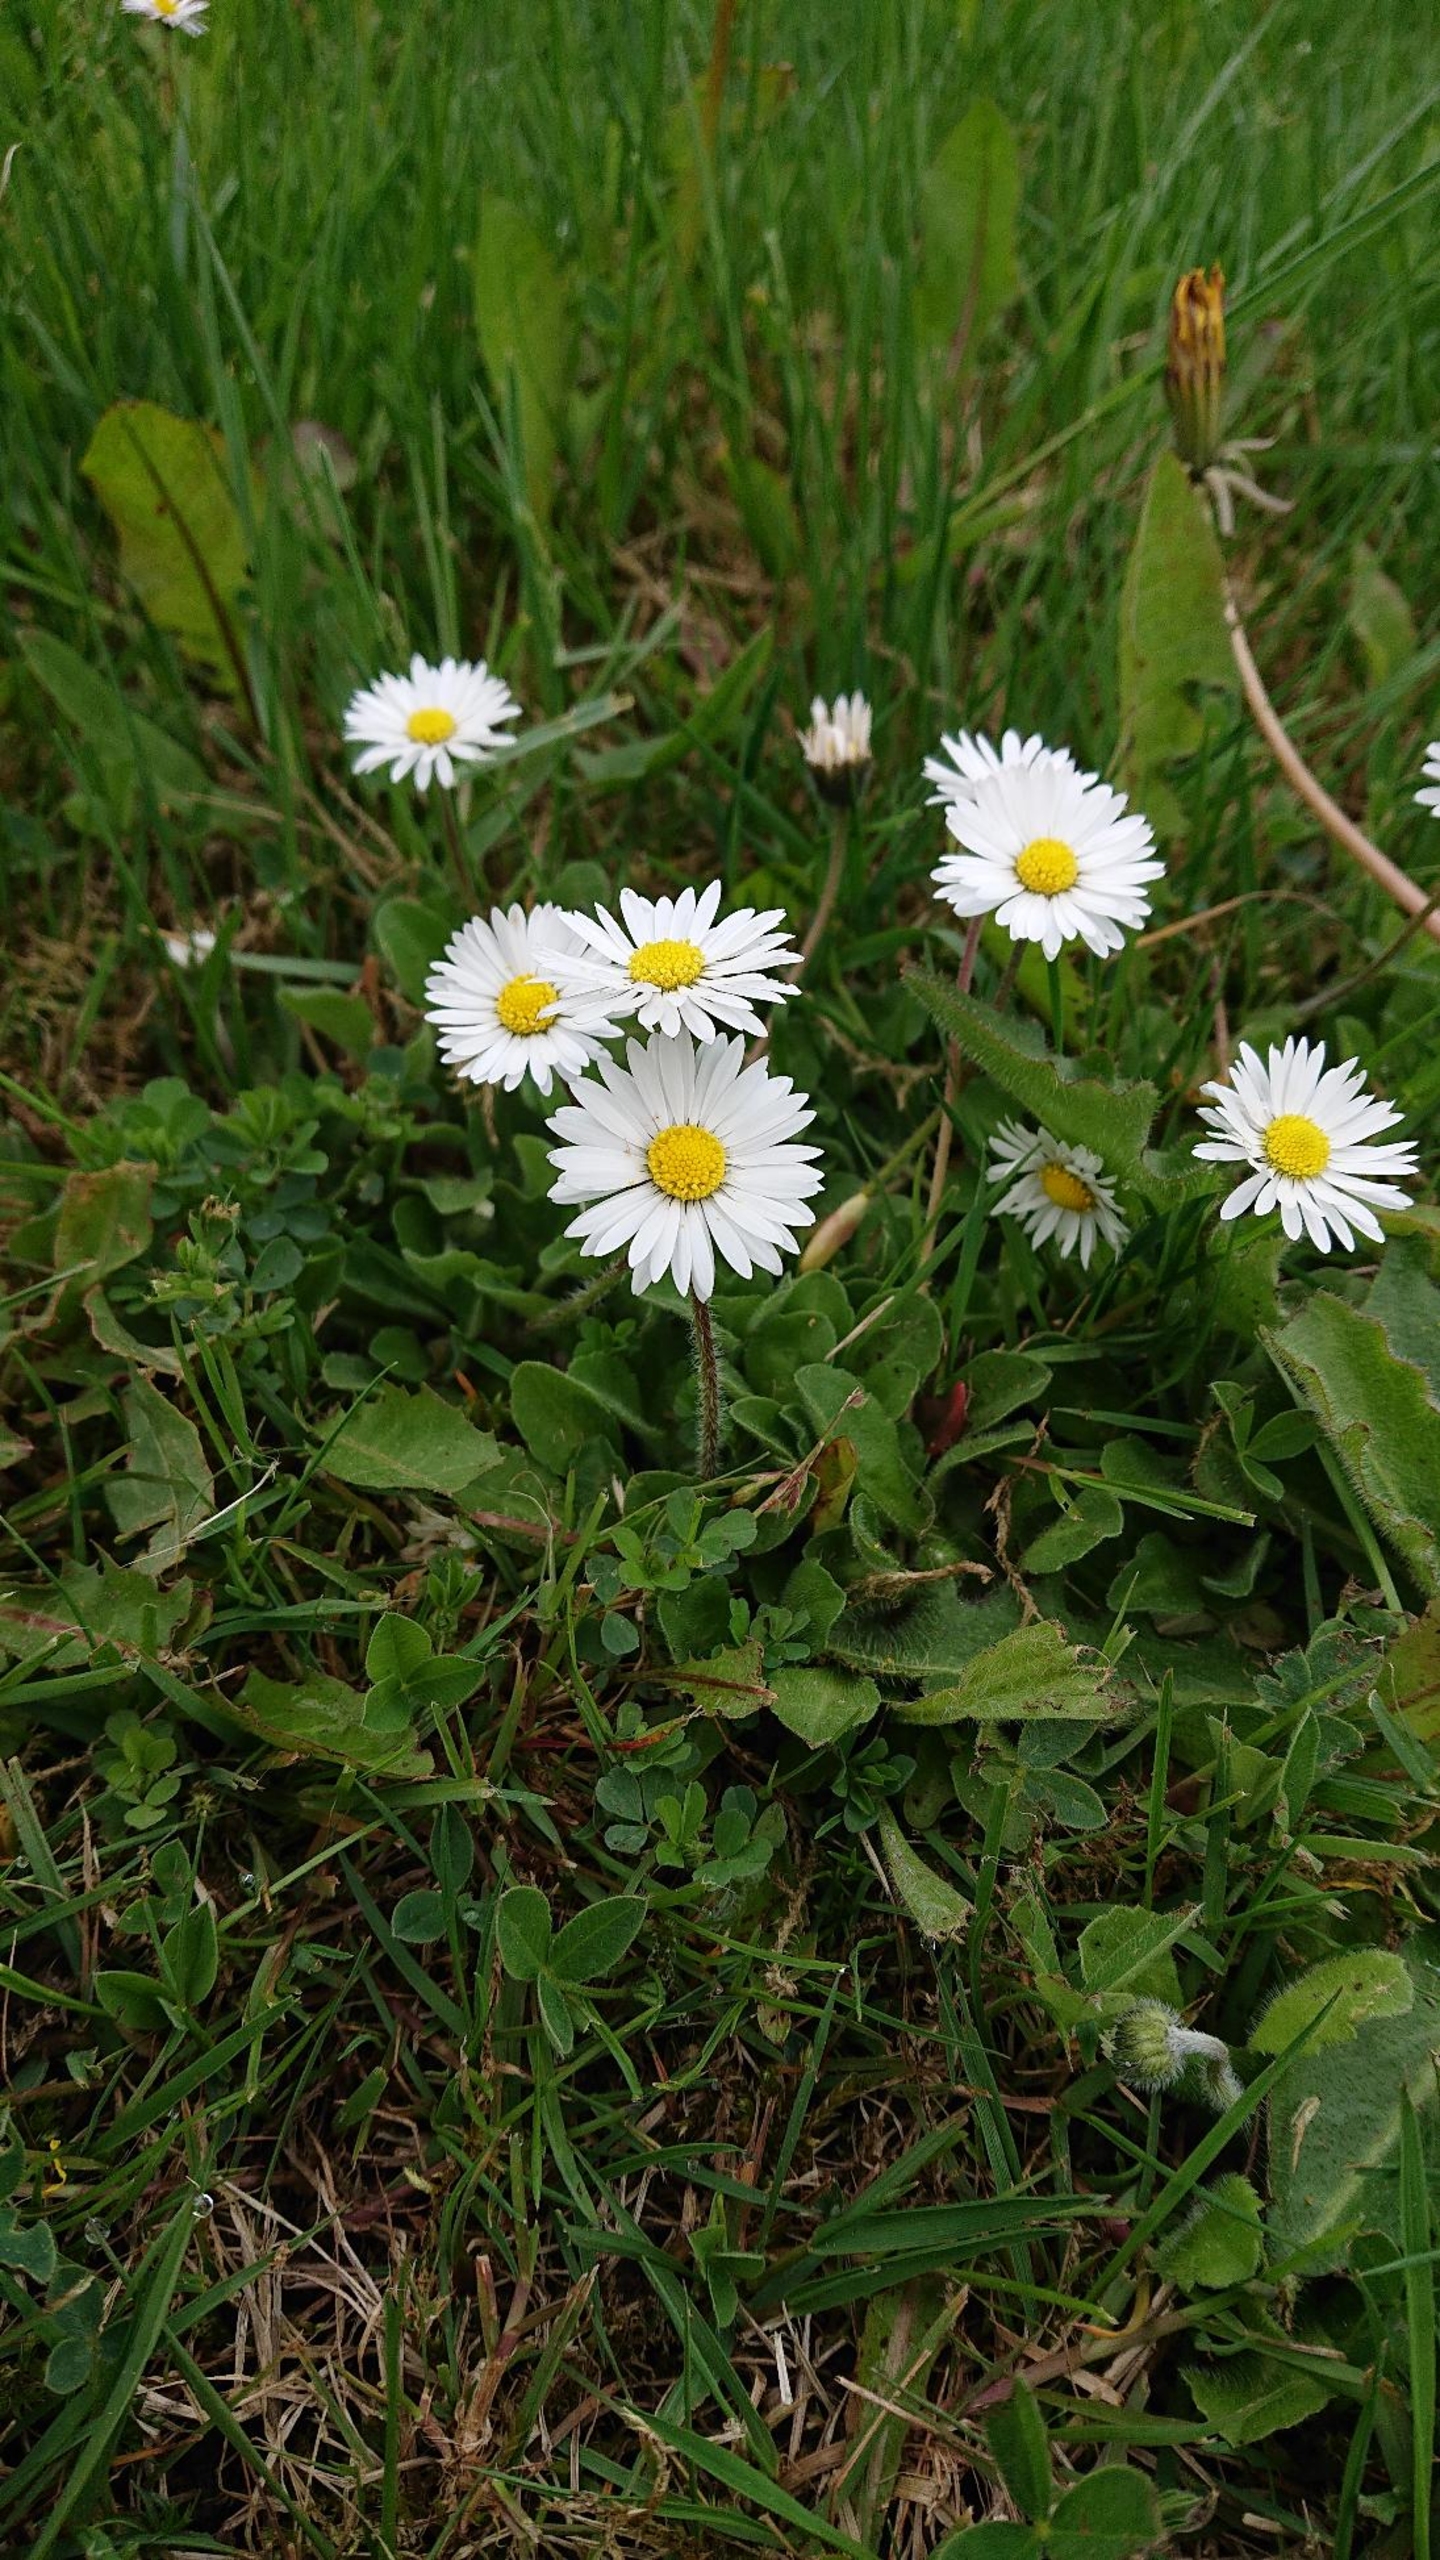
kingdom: Plantae
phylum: Tracheophyta
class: Magnoliopsida
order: Asterales
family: Asteraceae
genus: Bellis
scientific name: Bellis perennis
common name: Tusindfryd
